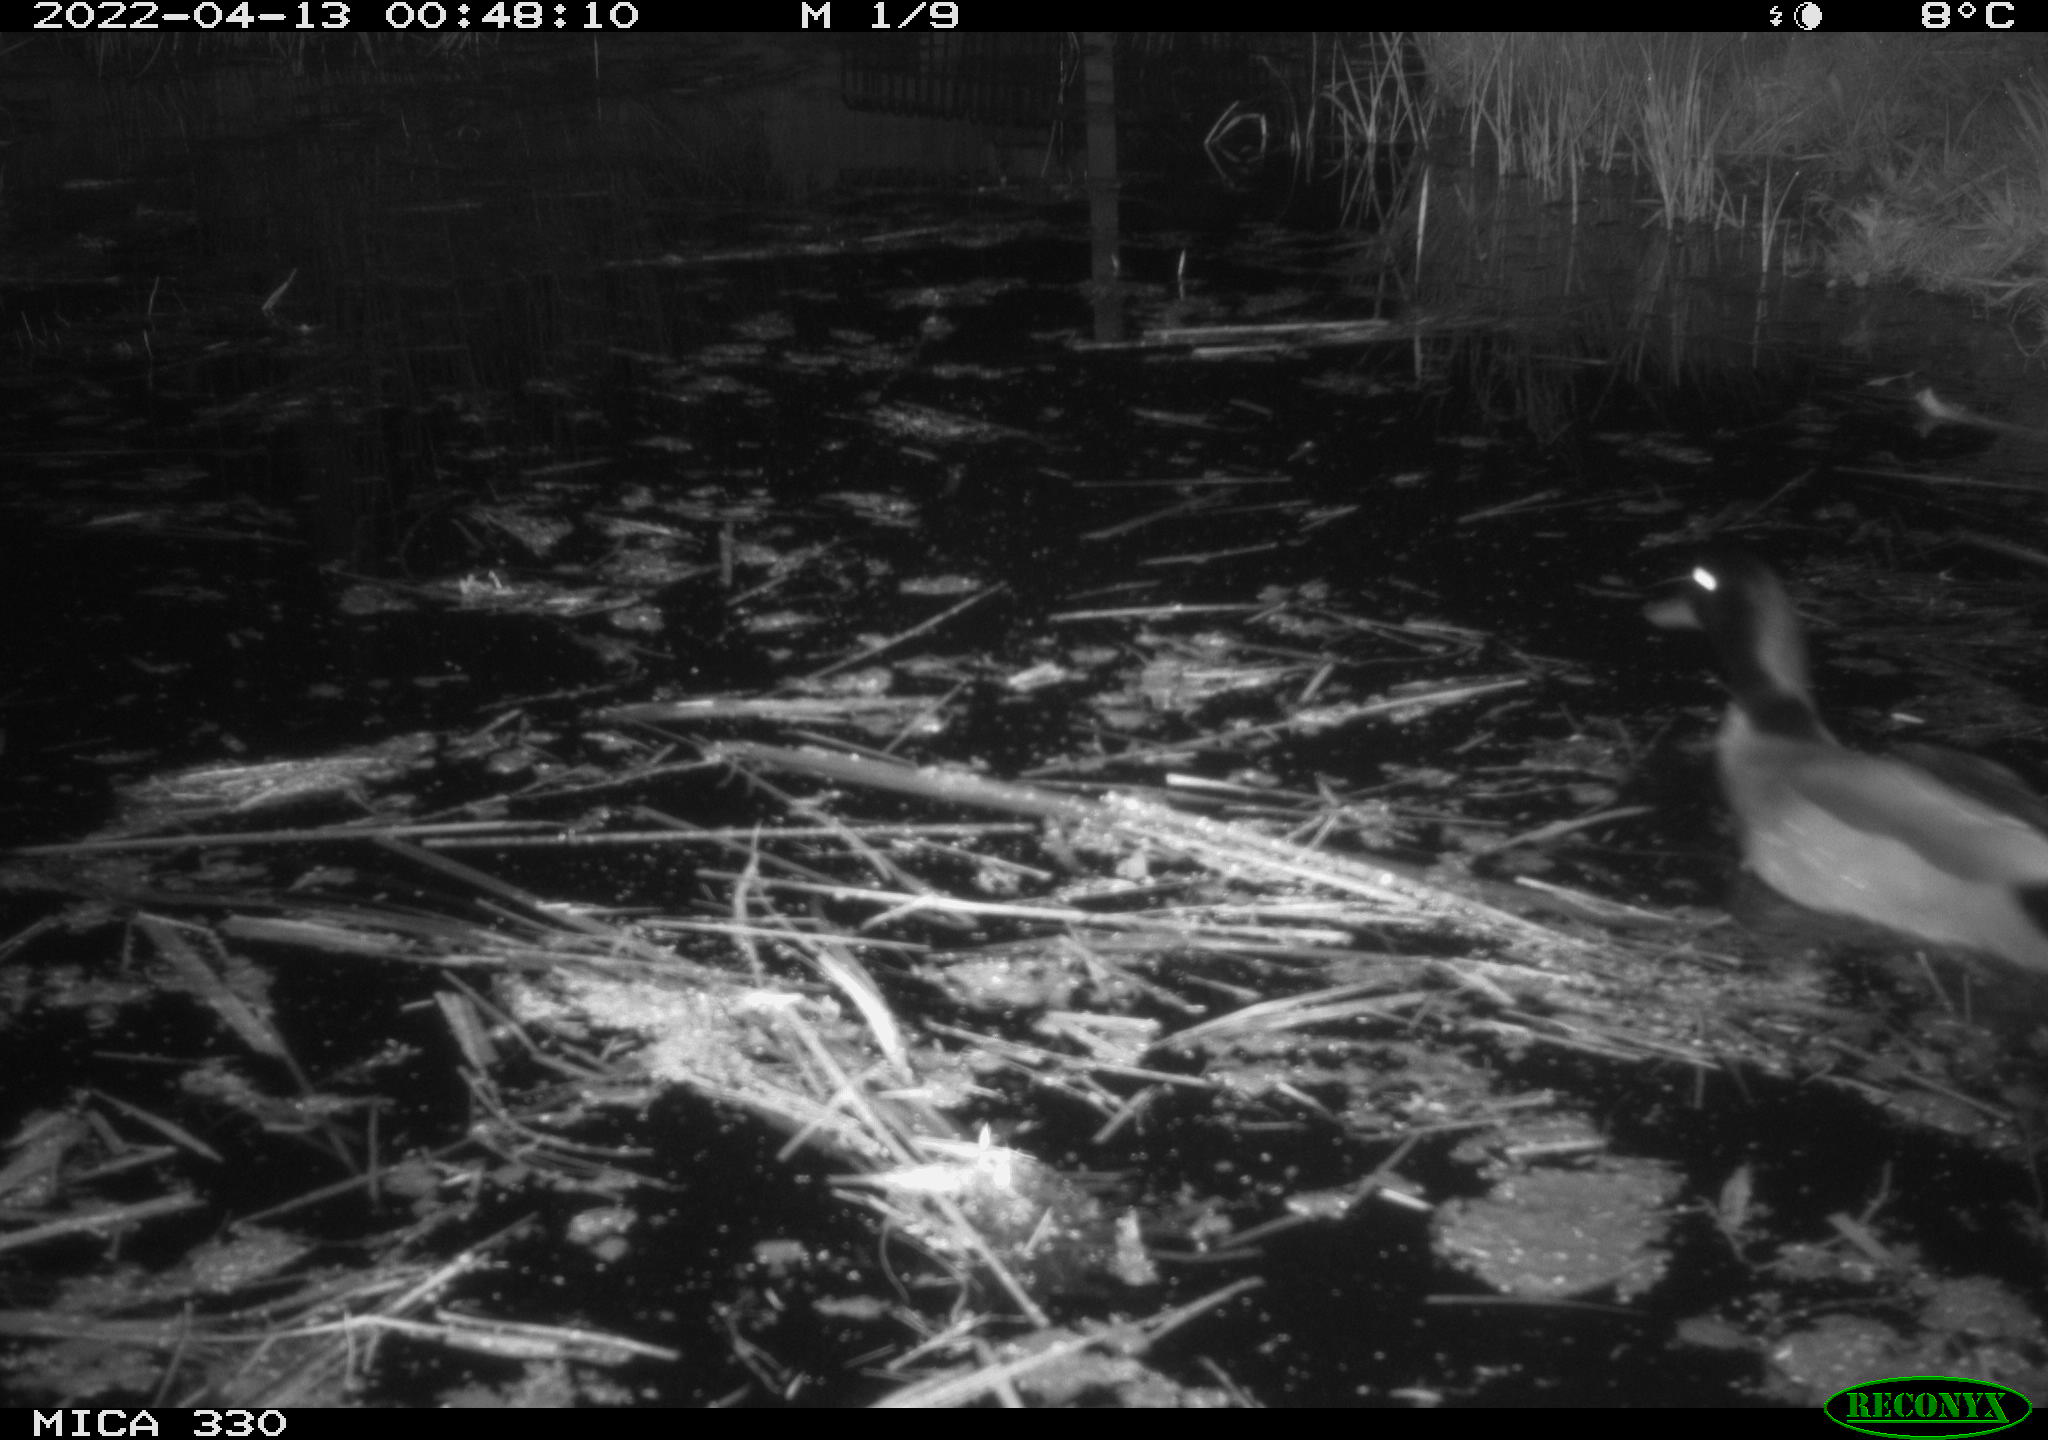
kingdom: Animalia
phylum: Chordata
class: Aves
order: Anseriformes
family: Anatidae
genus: Anas
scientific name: Anas platyrhynchos
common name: Mallard
